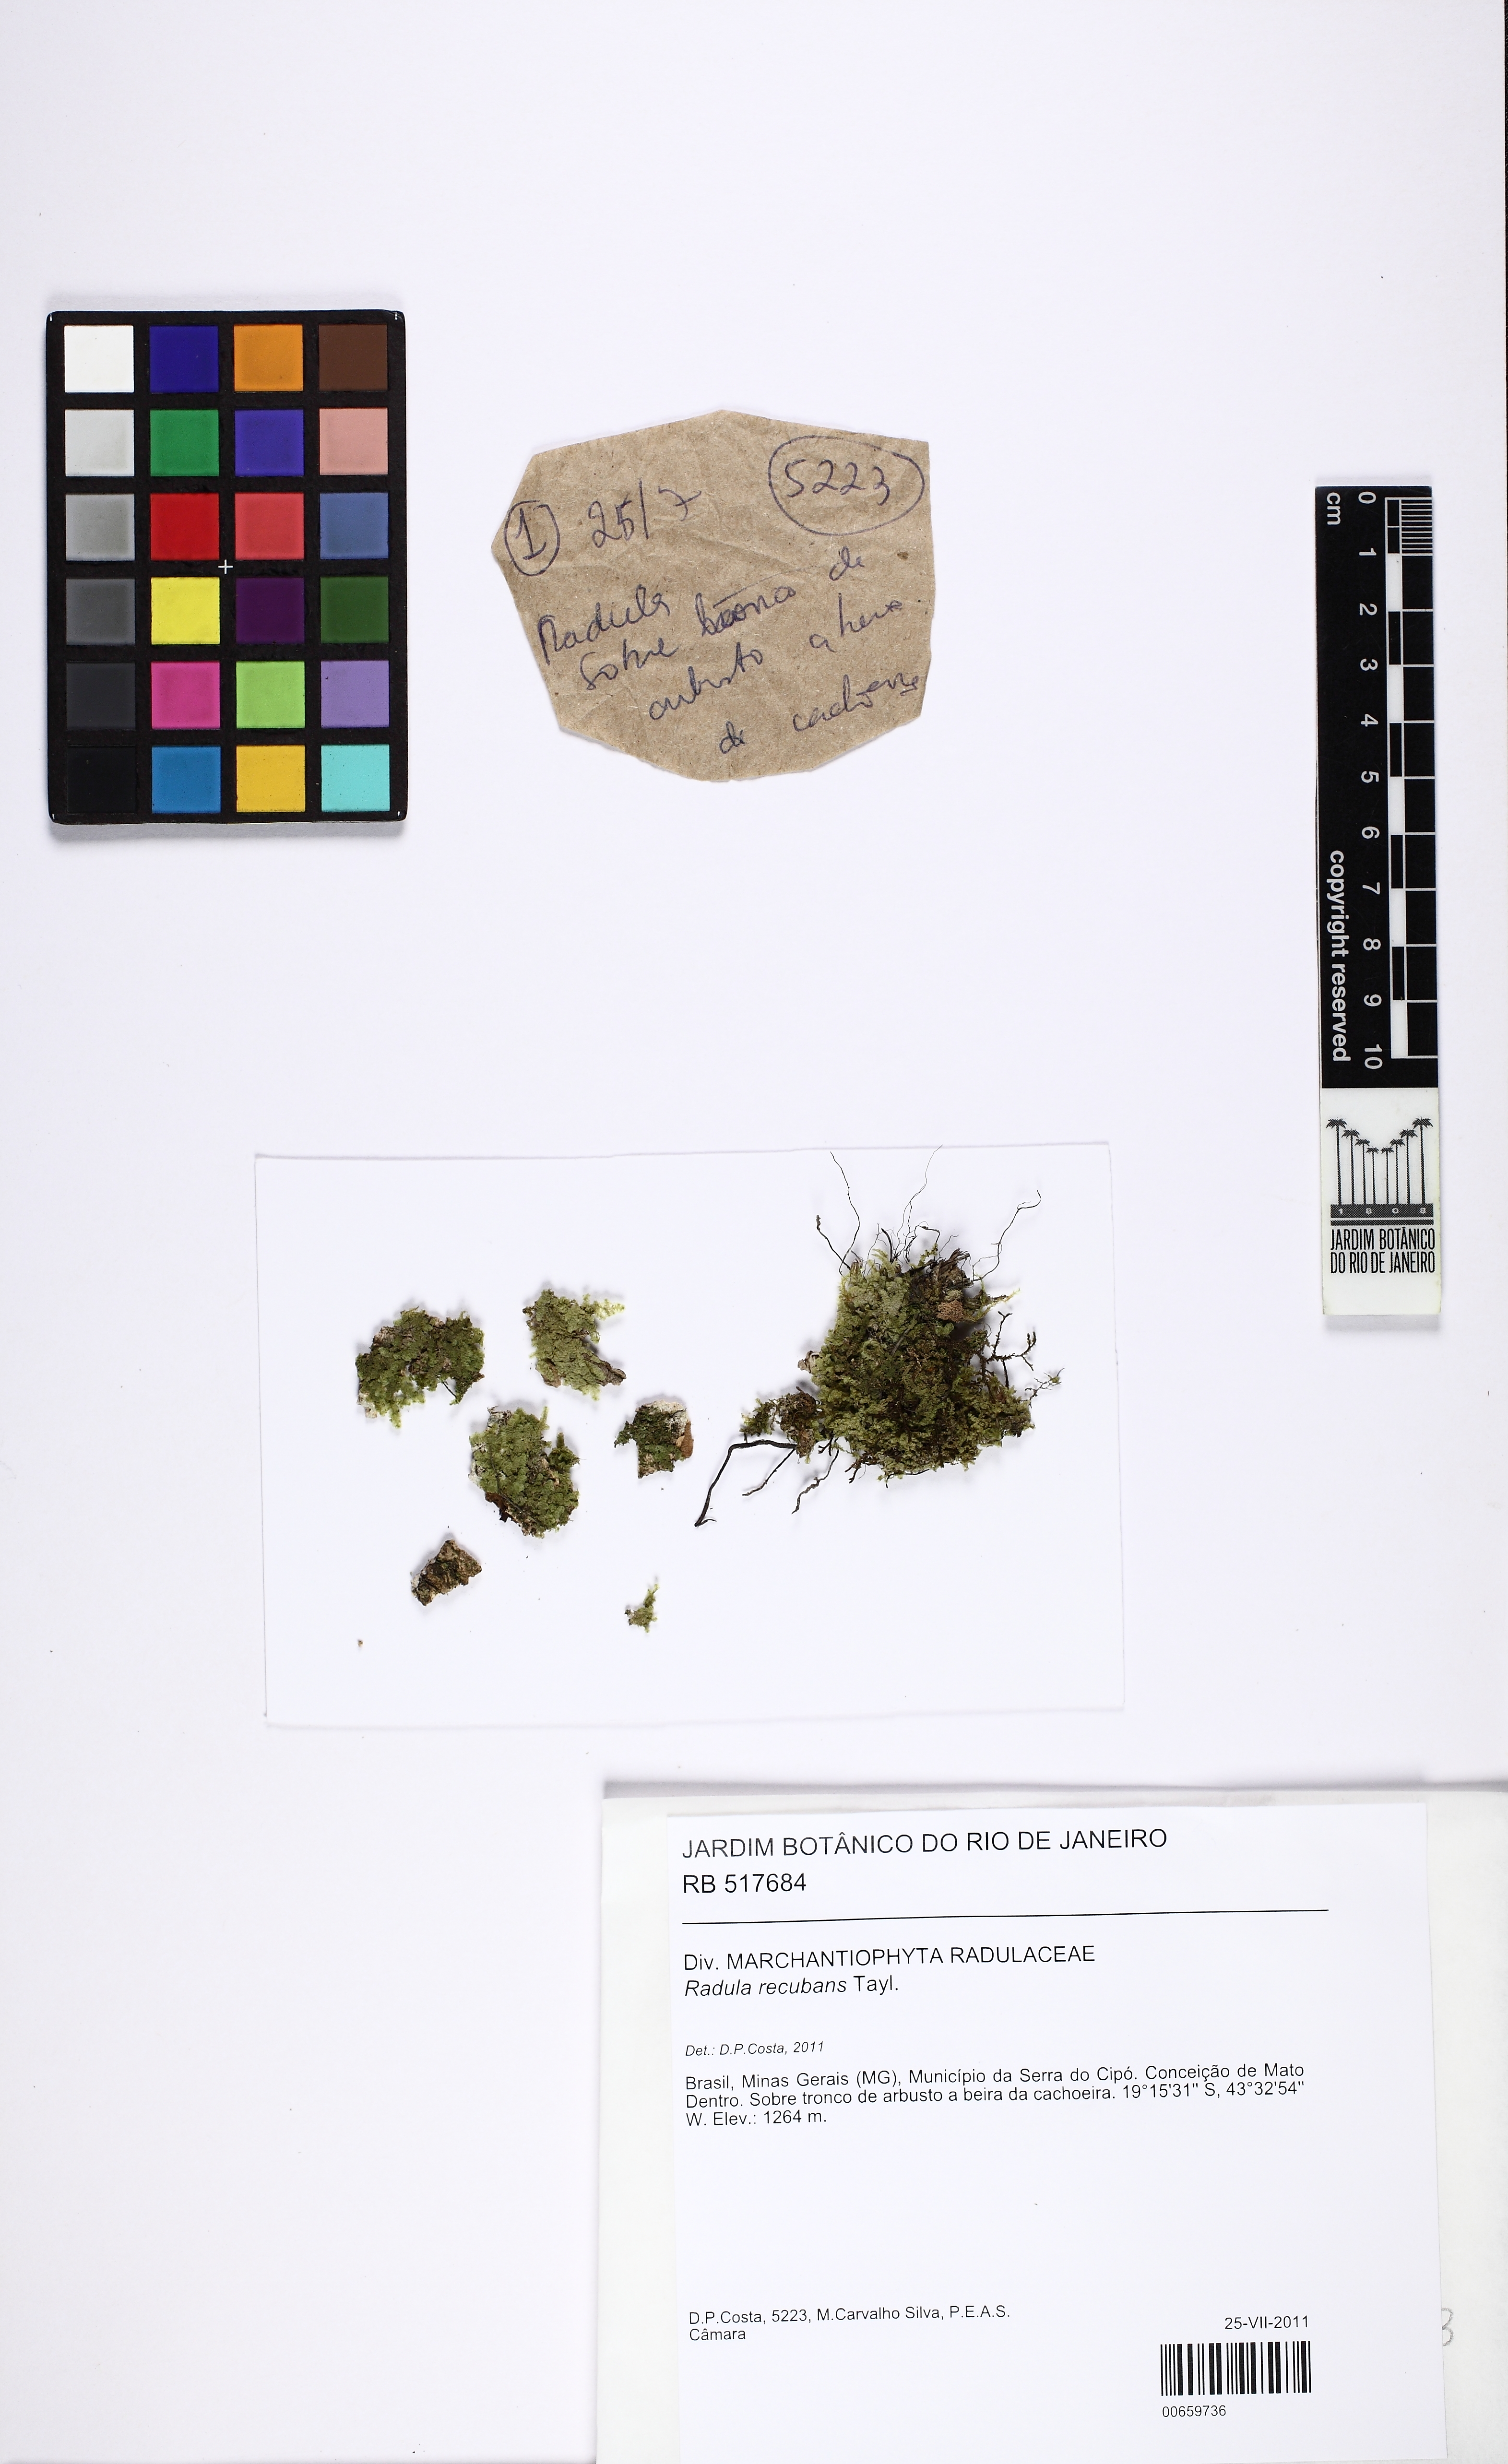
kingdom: Plantae
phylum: Marchantiophyta
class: Jungermanniopsida
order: Porellales
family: Radulaceae
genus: Radula
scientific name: Radula recubans
